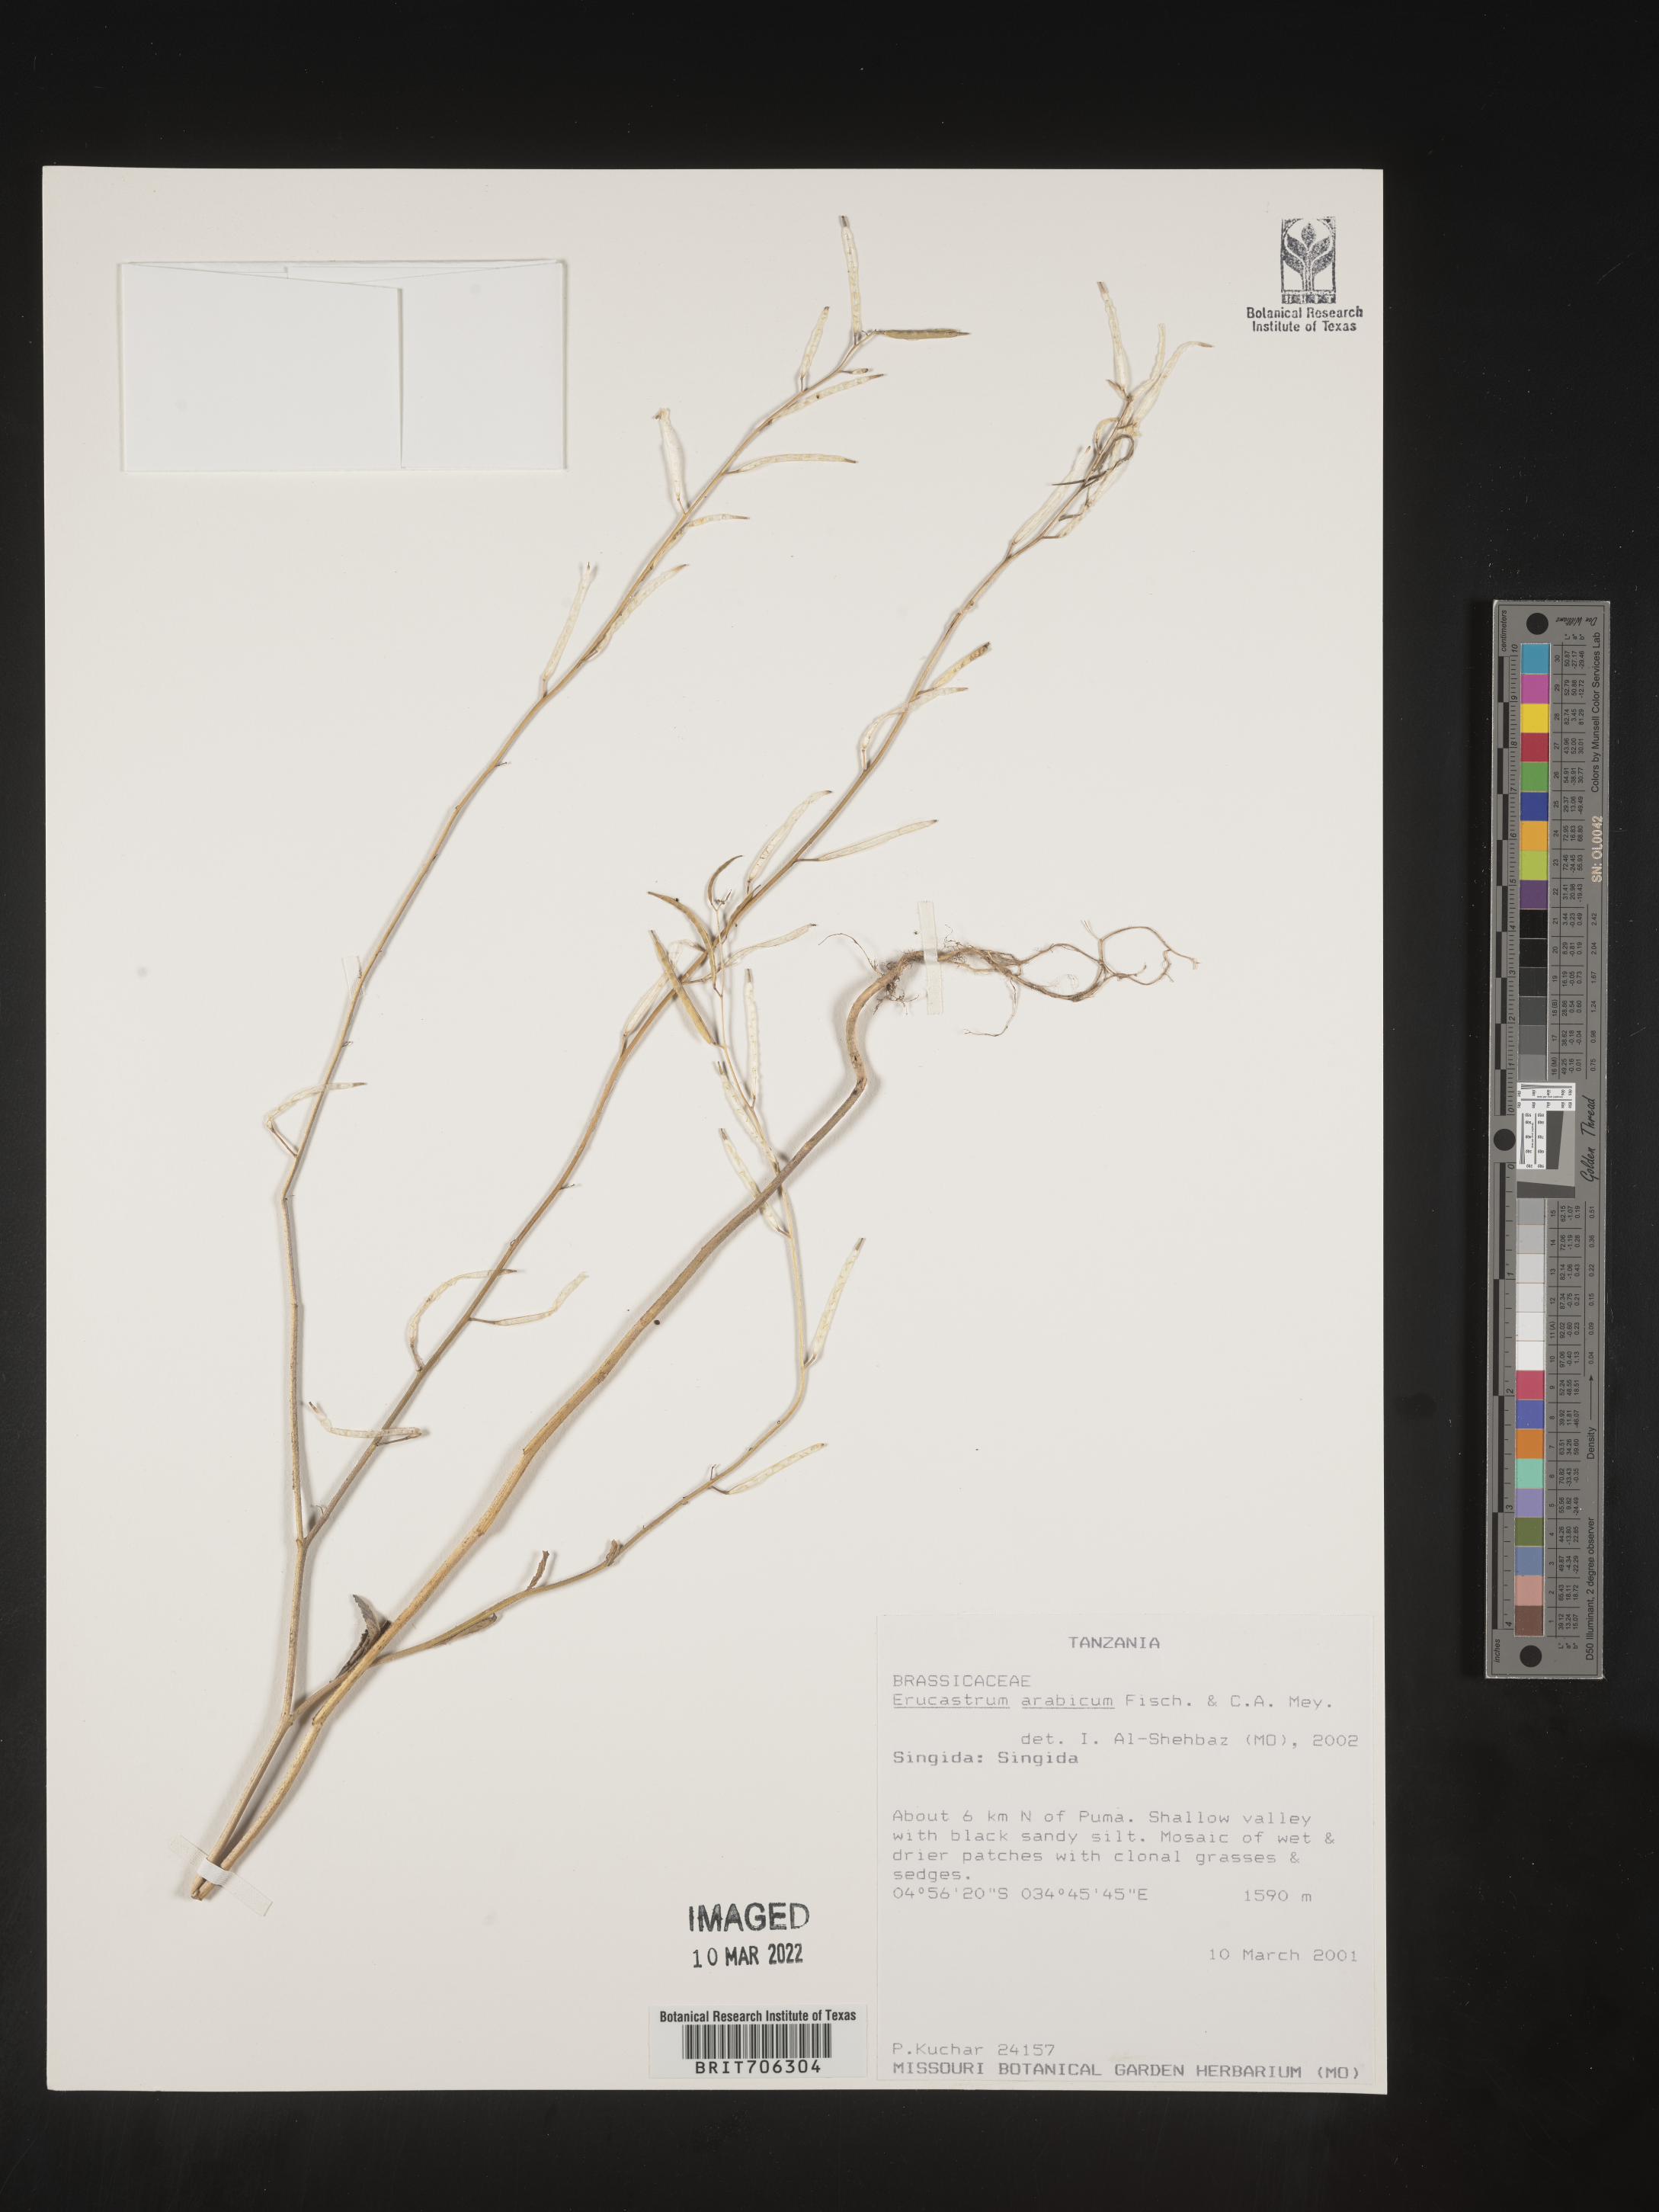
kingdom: Plantae
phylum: Tracheophyta
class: Magnoliopsida
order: Brassicales
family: Brassicaceae
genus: Erucastrum
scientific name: Erucastrum
